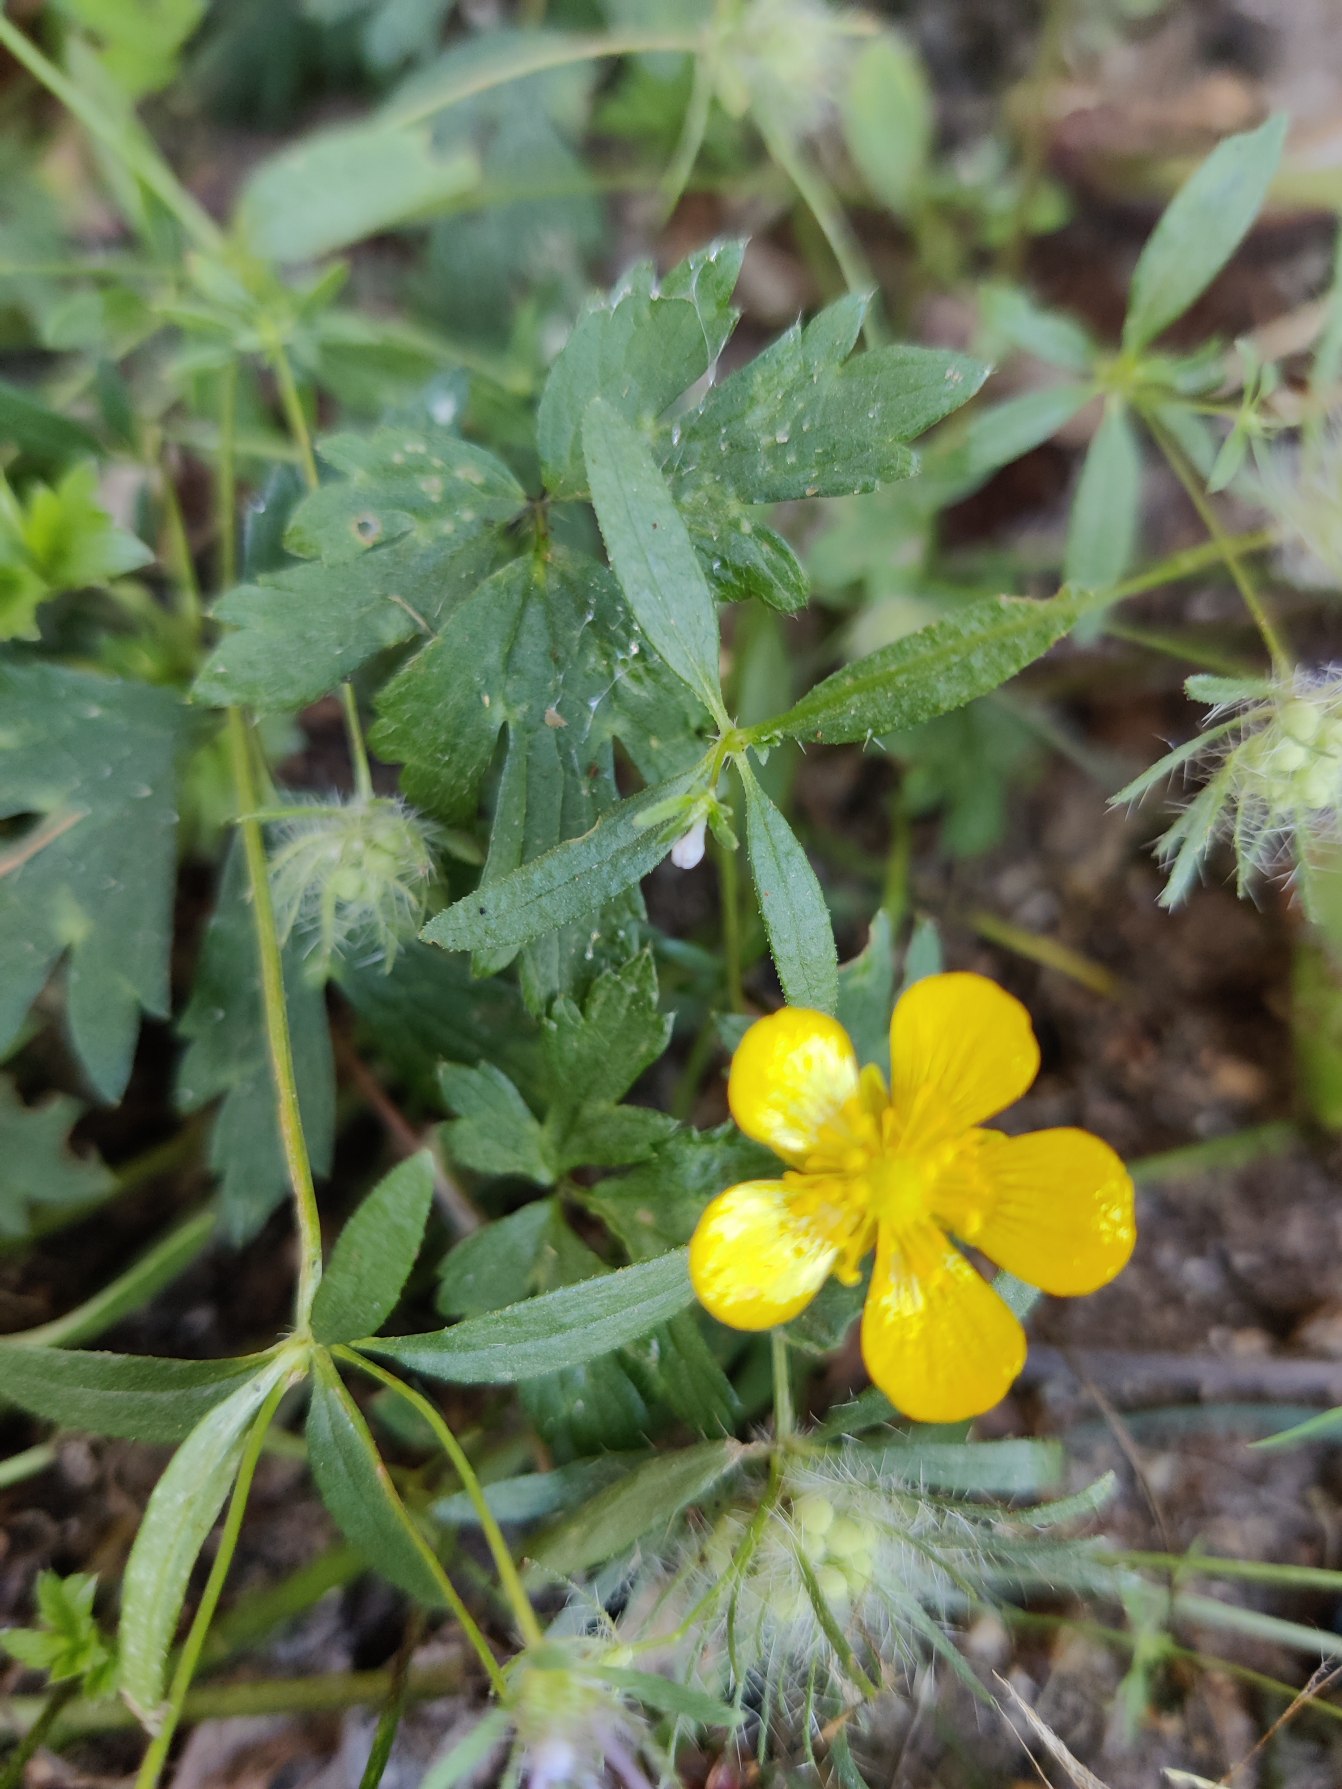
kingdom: Plantae
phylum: Tracheophyta
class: Magnoliopsida
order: Ranunculales
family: Ranunculaceae
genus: Ranunculus
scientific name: Ranunculus repens
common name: Lav ranunkel
